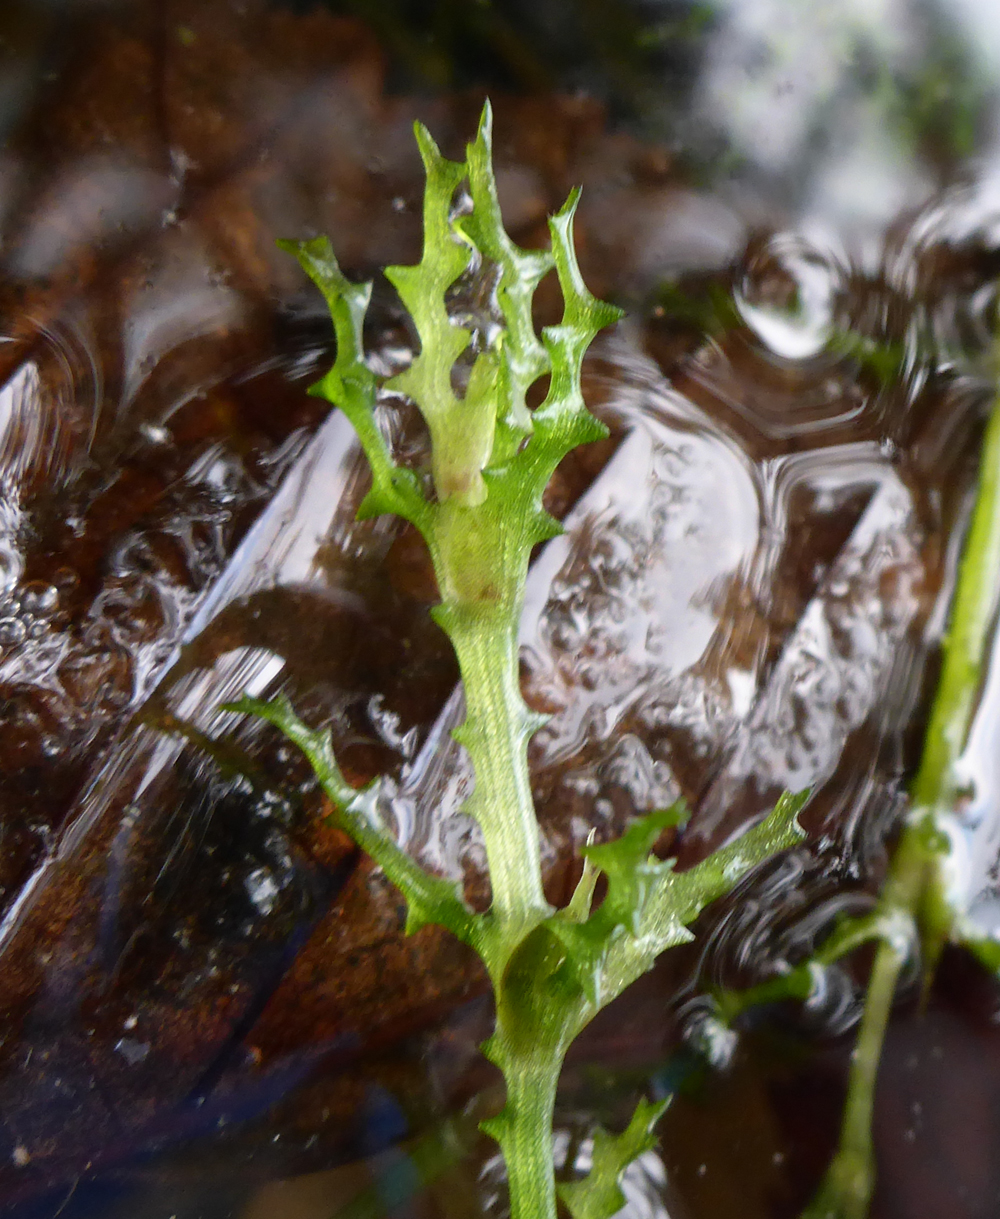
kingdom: Plantae
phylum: Tracheophyta
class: Liliopsida
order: Alismatales
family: Hydrocharitaceae
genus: Najas
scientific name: Najas marina
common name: Holly-leaved naiad
